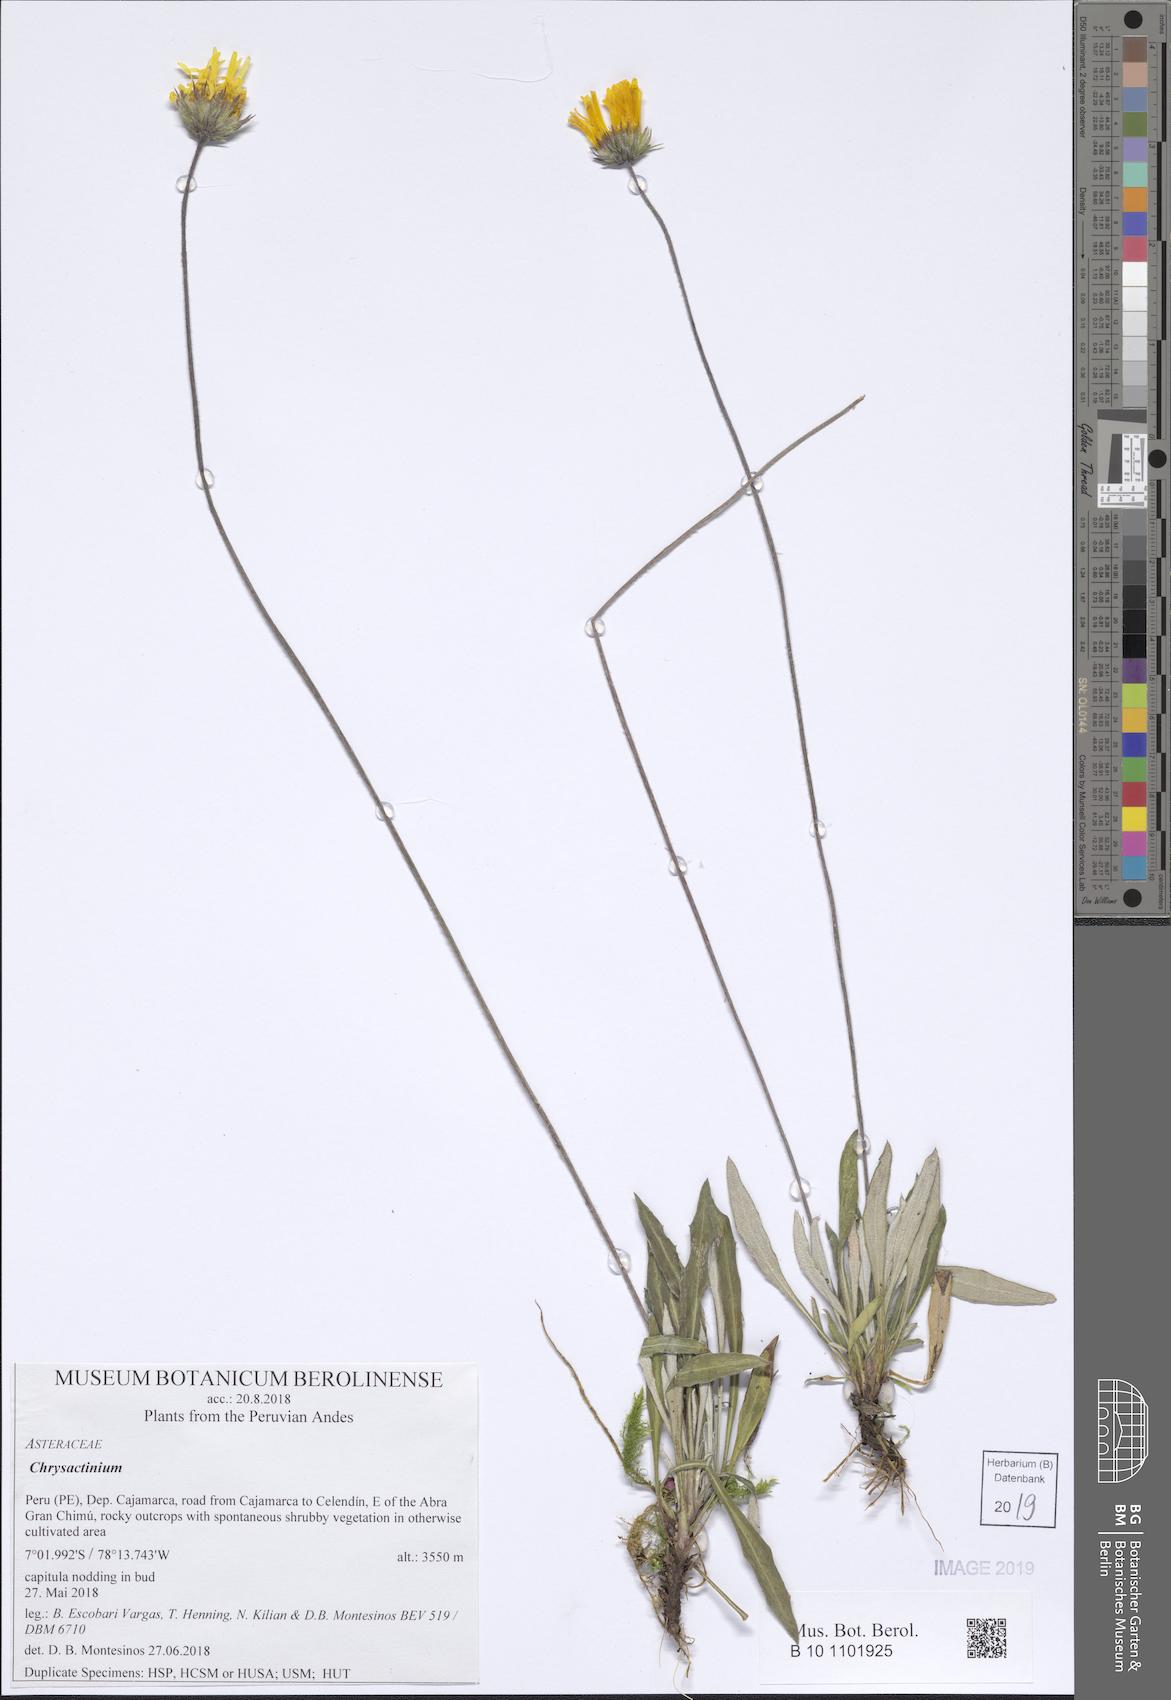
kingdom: Plantae
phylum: Tracheophyta
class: Magnoliopsida
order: Asterales
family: Asteraceae
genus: Chrysactinium
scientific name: Chrysactinium acaule
